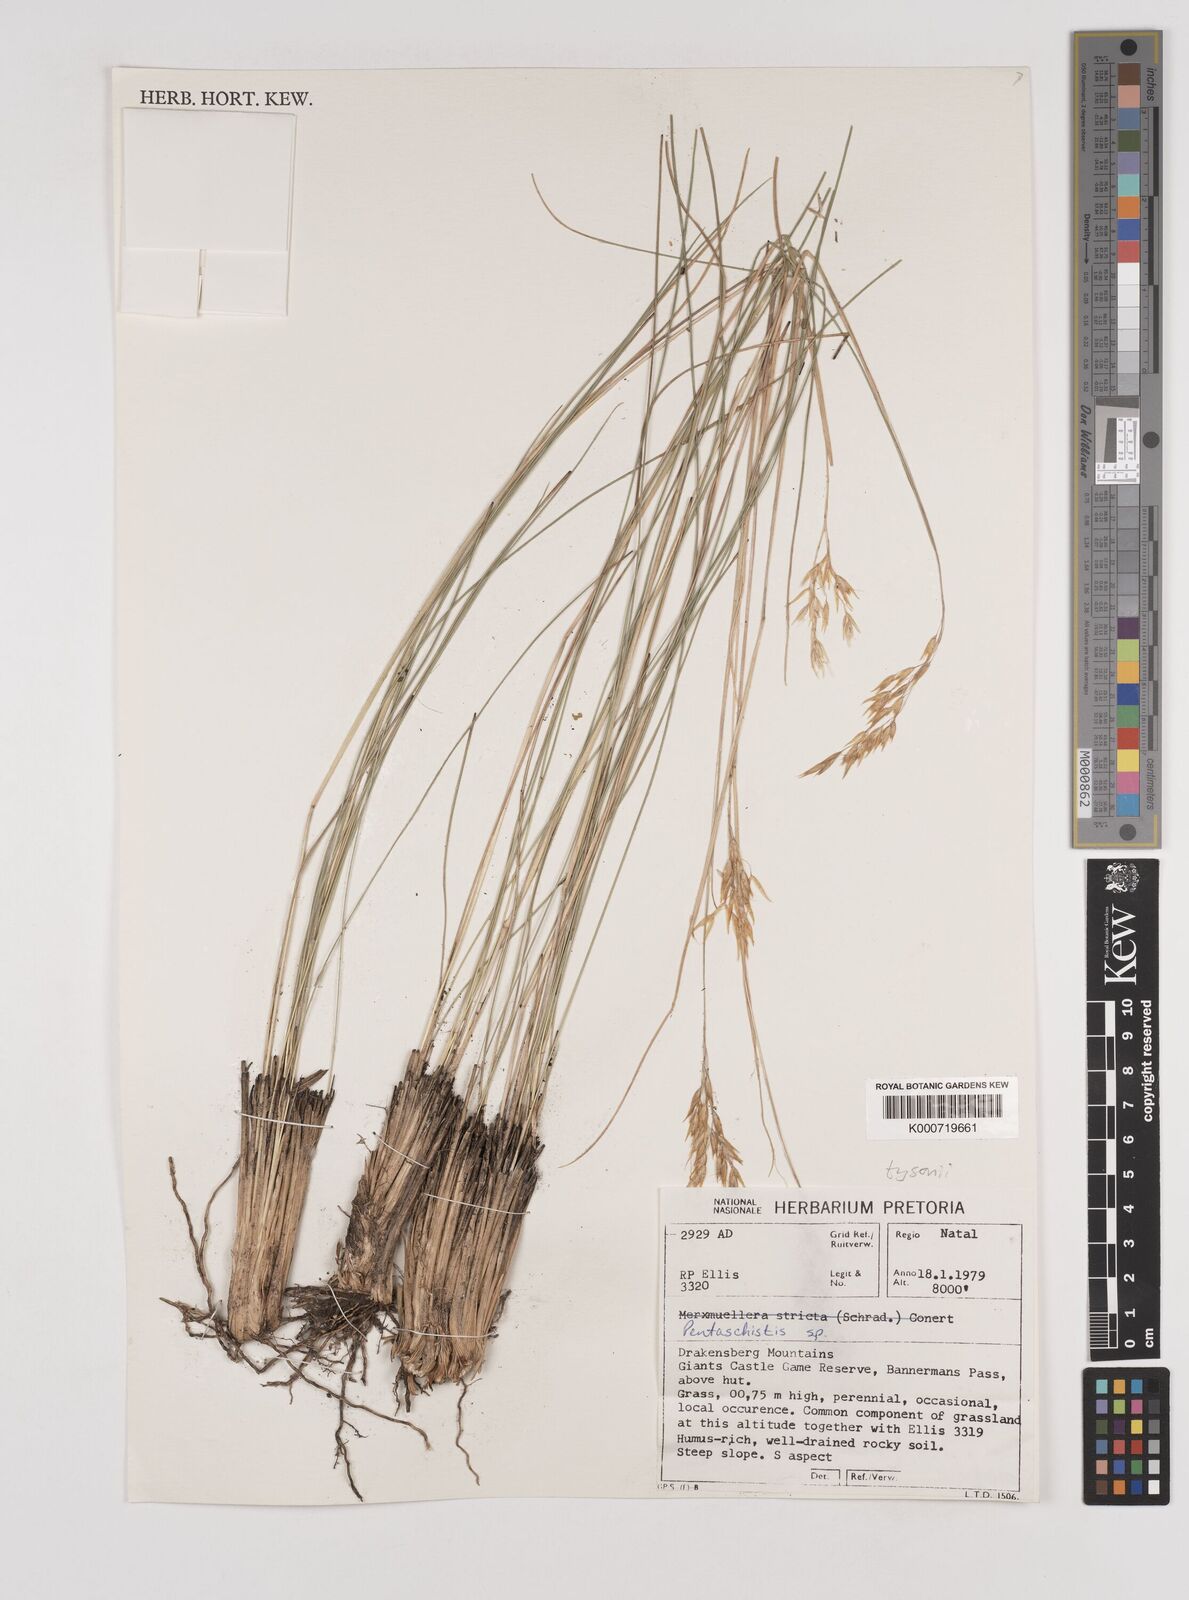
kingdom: Plantae
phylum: Tracheophyta
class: Liliopsida
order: Poales
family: Poaceae
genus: Pentameris
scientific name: Pentameris tysonii
